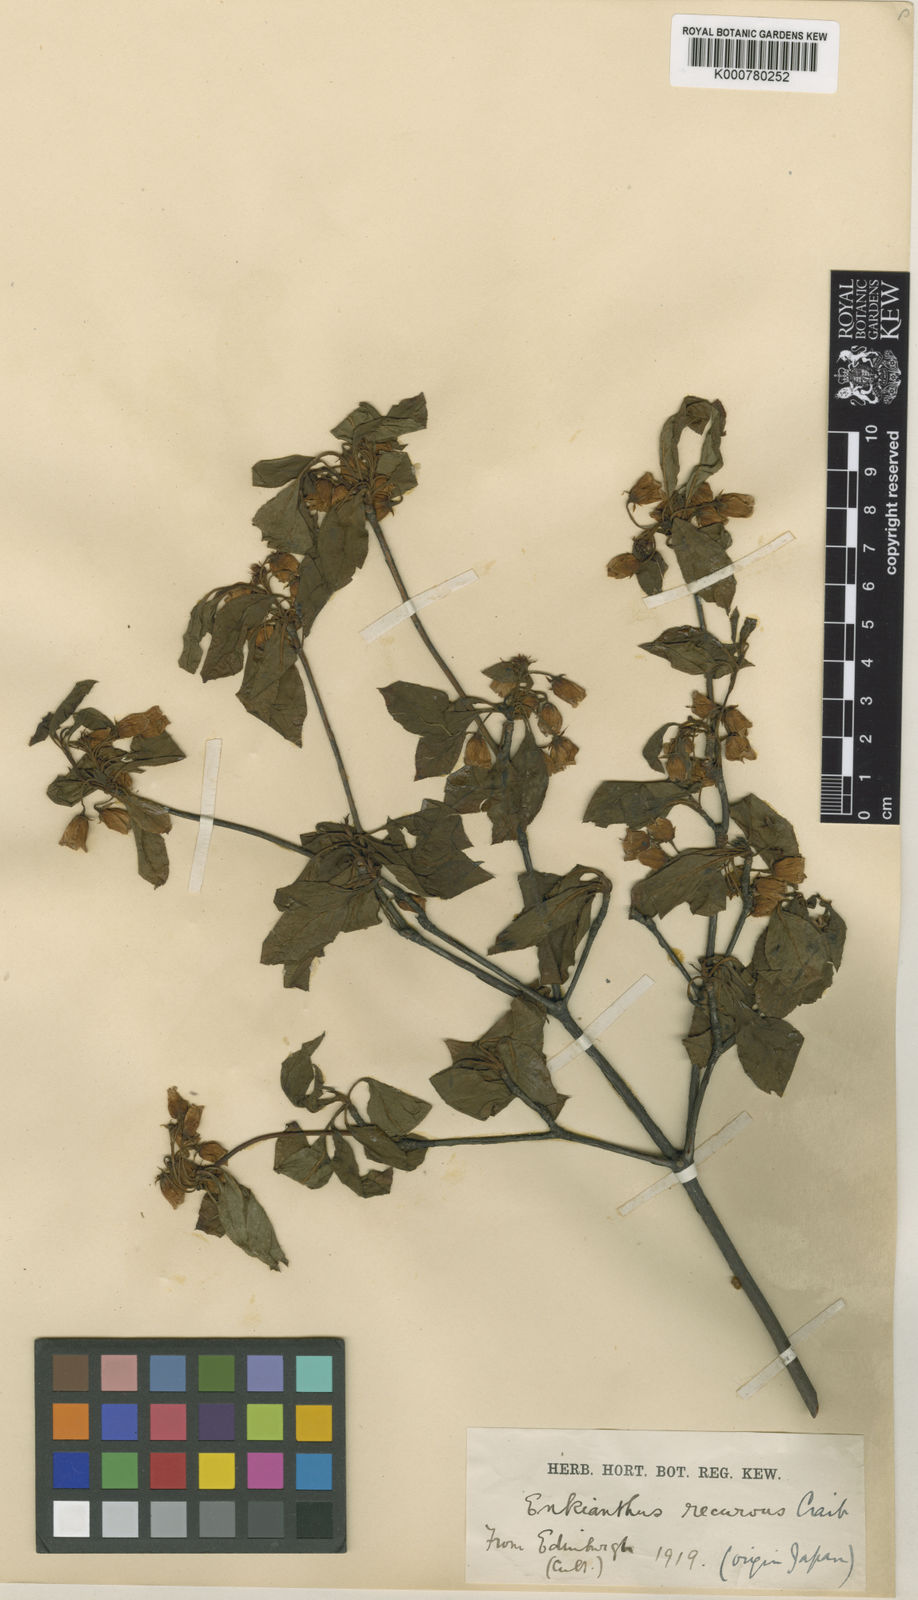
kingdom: Plantae
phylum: Tracheophyta
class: Magnoliopsida
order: Ericales
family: Ericaceae
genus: Enkianthus
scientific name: Enkianthus campanulatus
